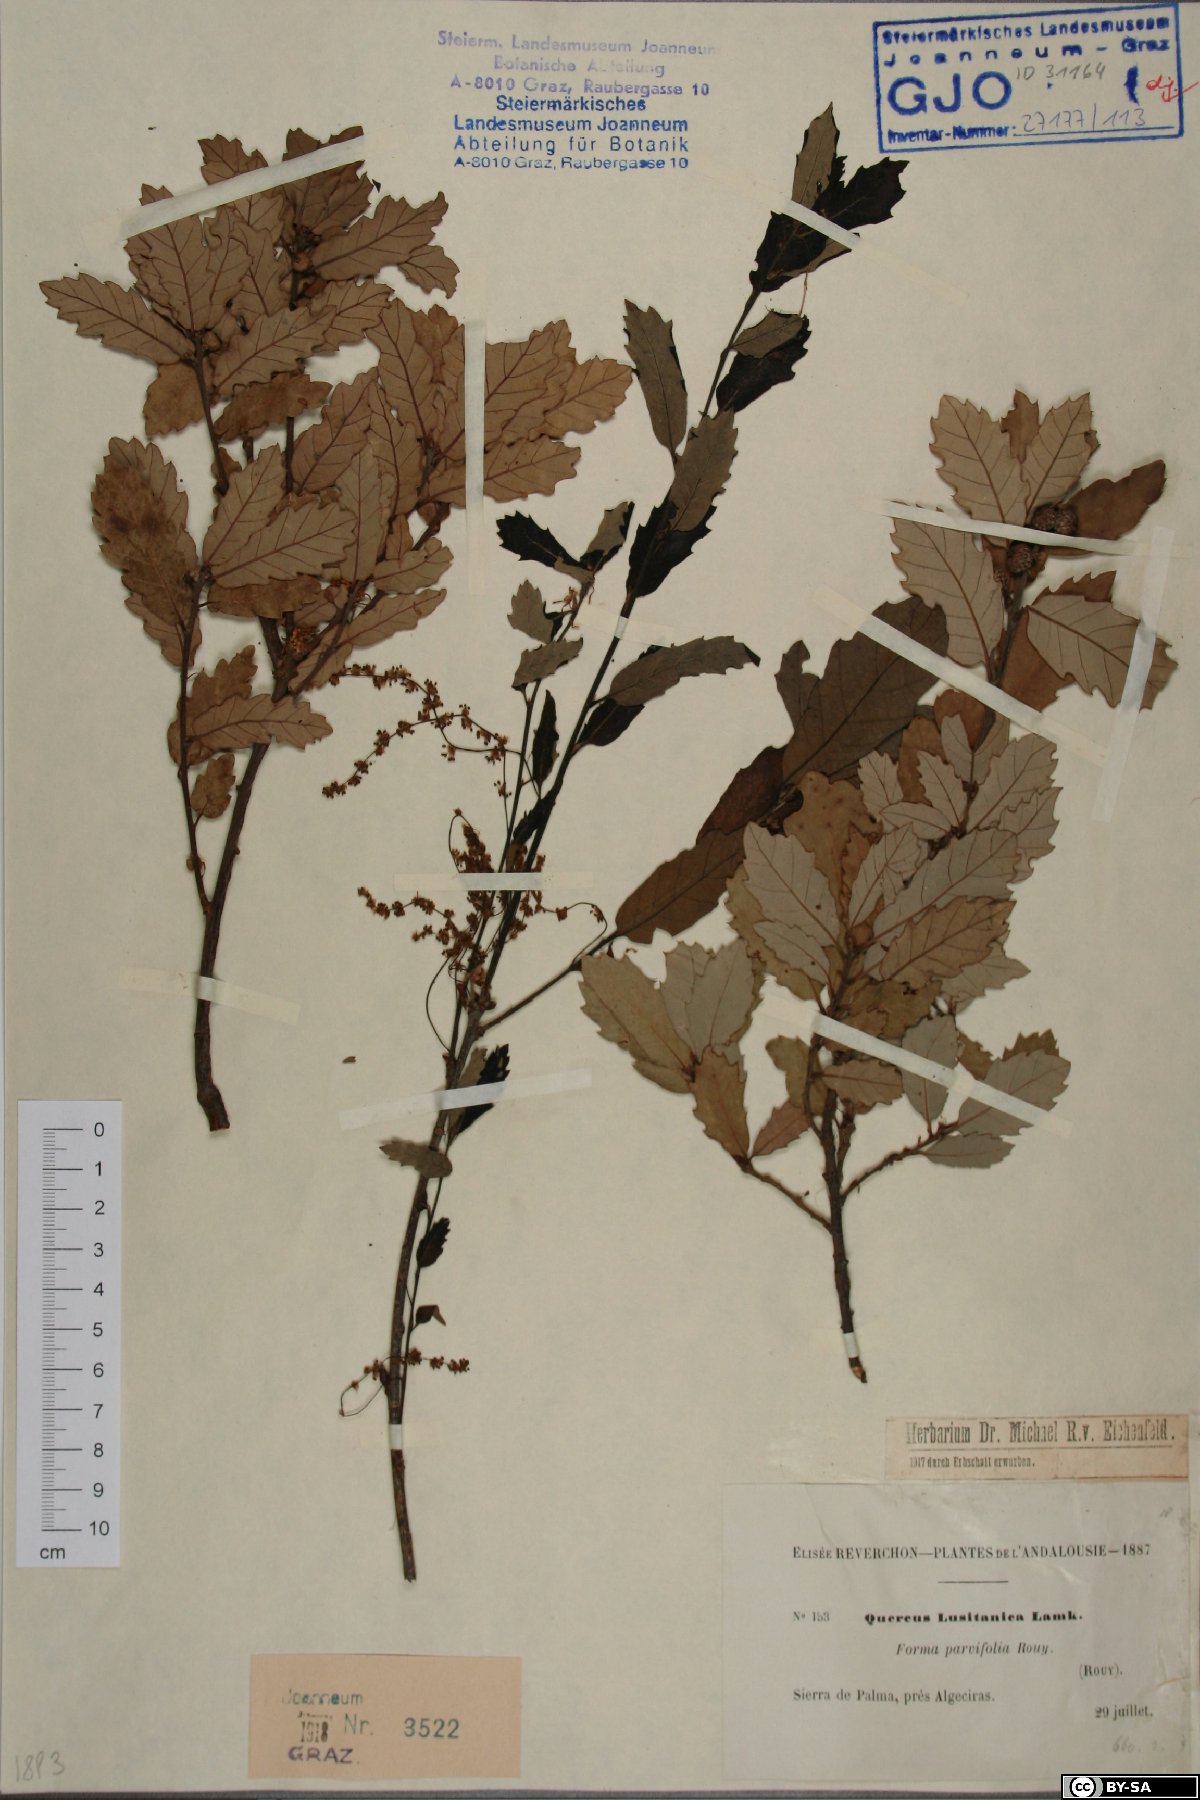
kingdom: Plantae
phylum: Tracheophyta
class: Magnoliopsida
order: Fagales
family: Fagaceae
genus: Quercus
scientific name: Quercus lusitanica
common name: Scrub gall oak
